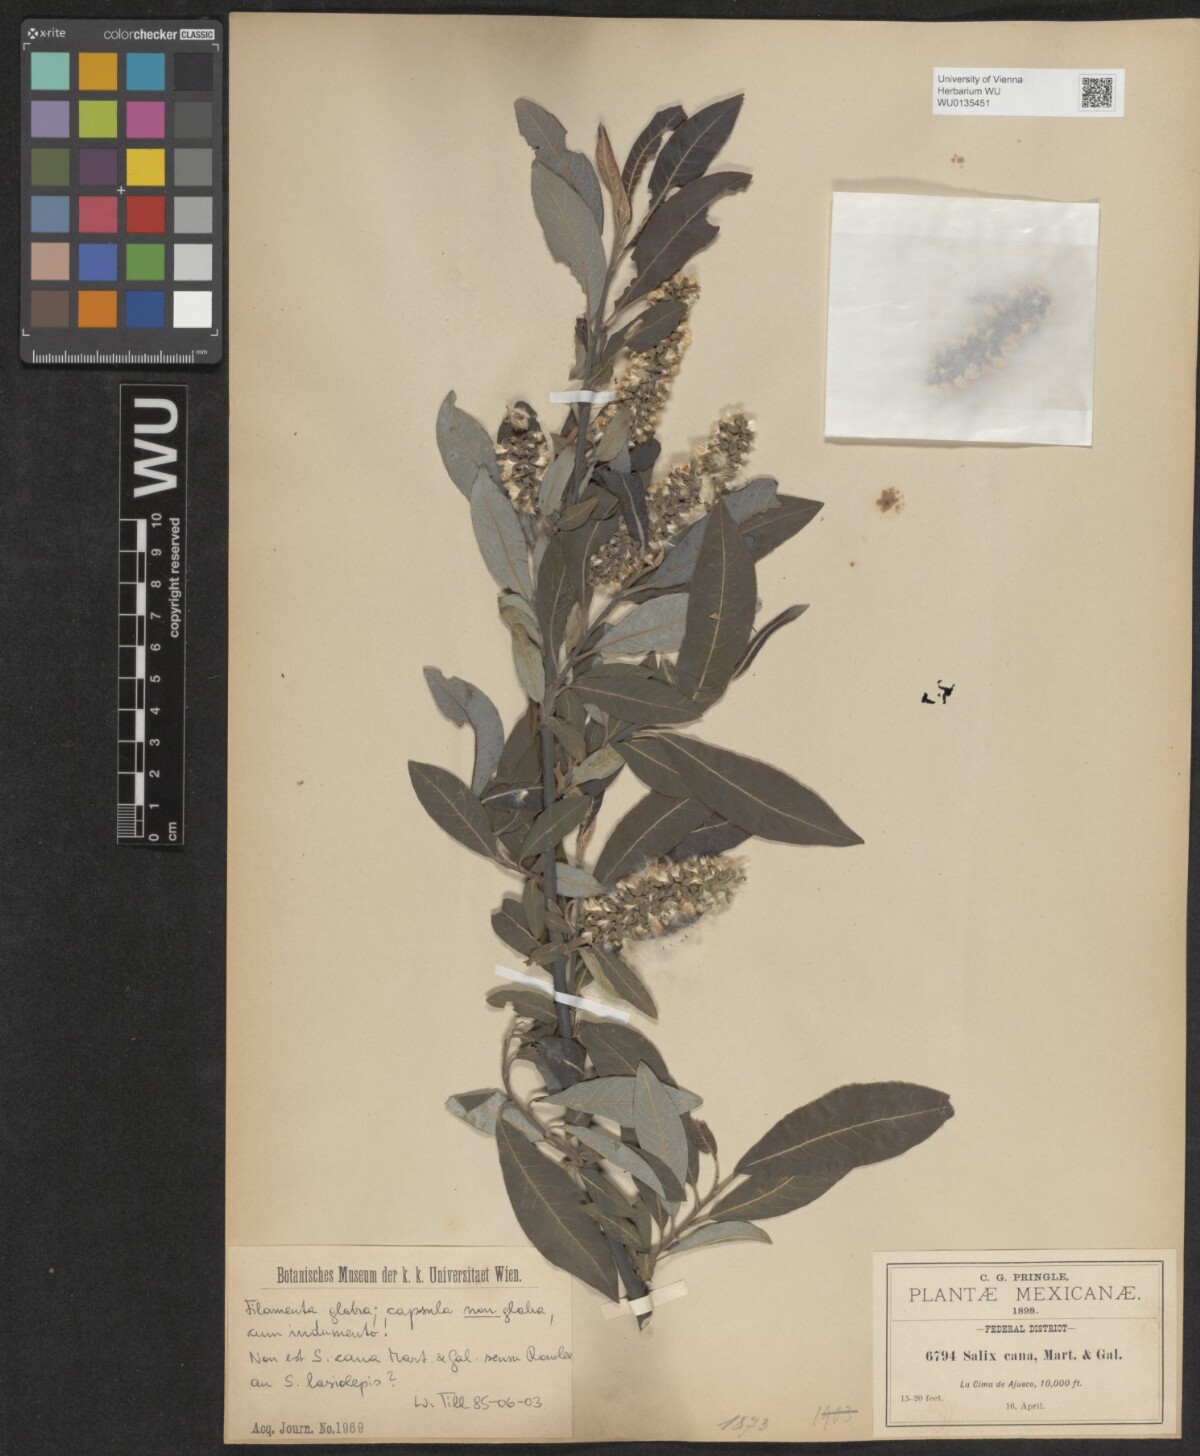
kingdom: Plantae
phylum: Tracheophyta
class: Magnoliopsida
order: Malpighiales
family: Salicaceae
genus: Salix
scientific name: Salix cana
